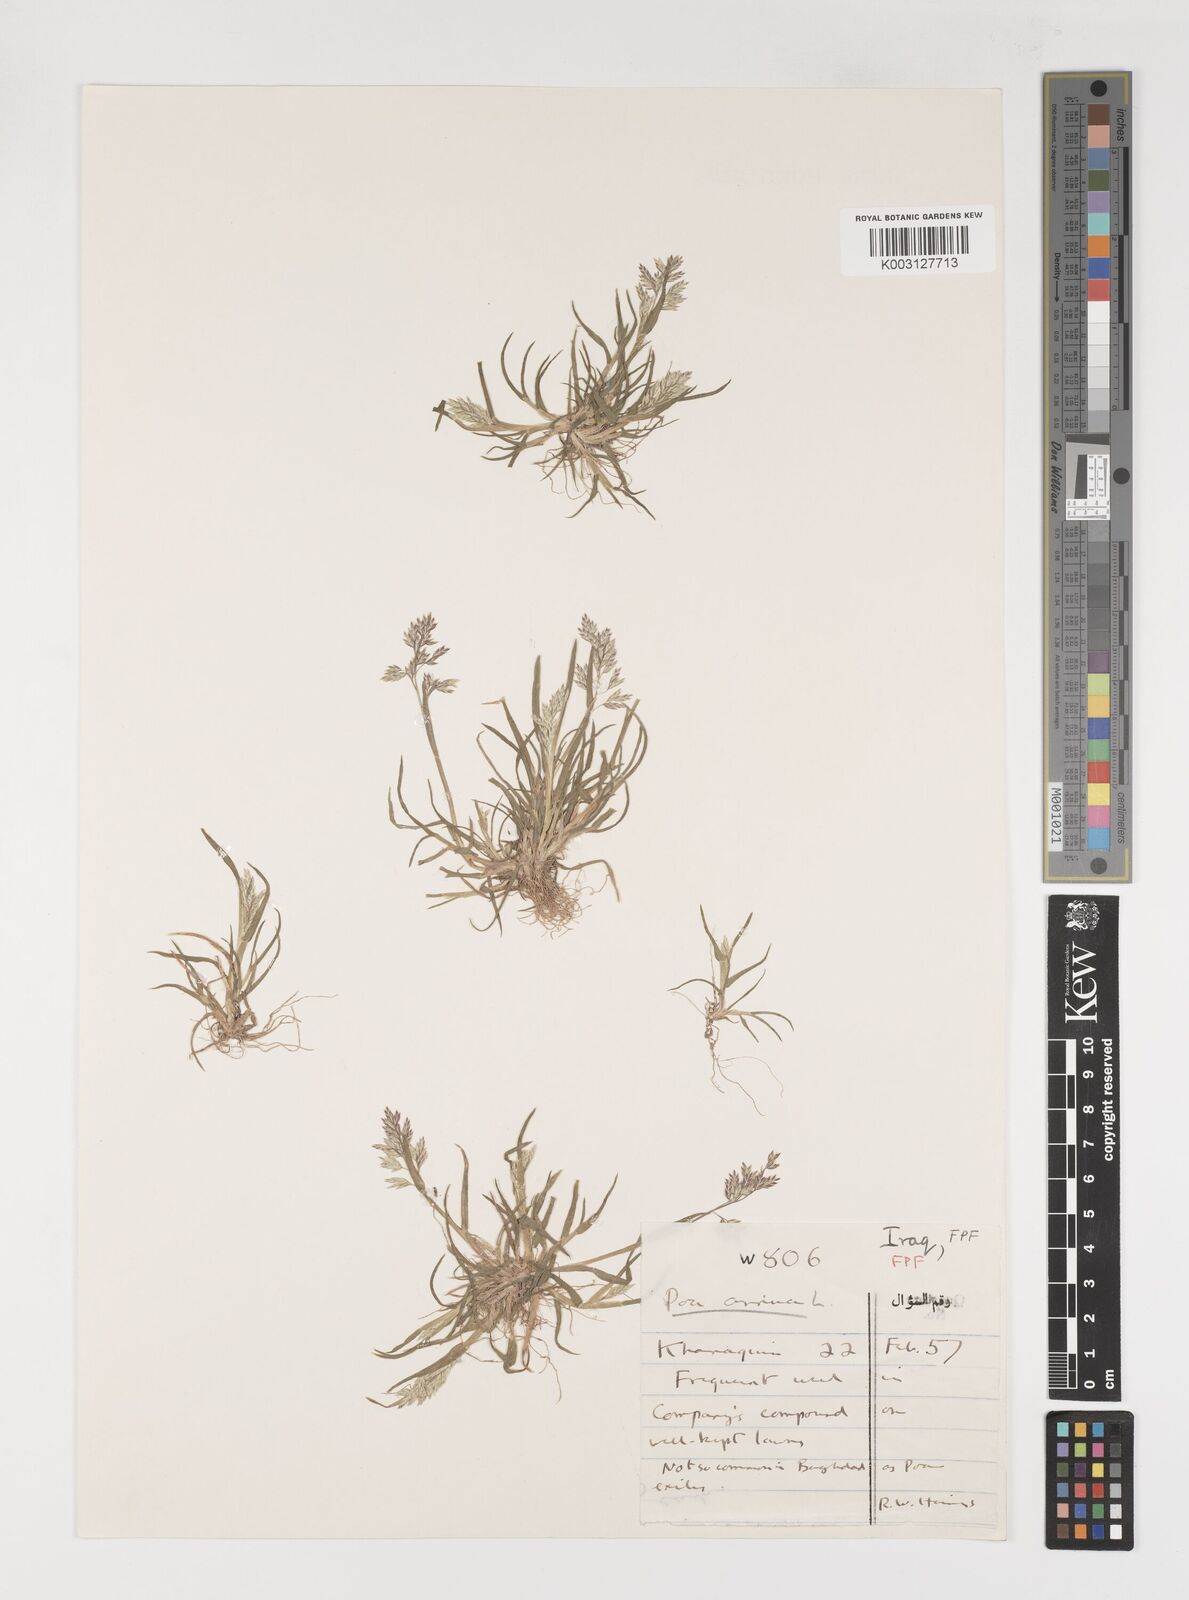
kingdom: Plantae
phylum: Tracheophyta
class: Liliopsida
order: Poales
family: Poaceae
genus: Poa
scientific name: Poa annua
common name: Annual bluegrass
